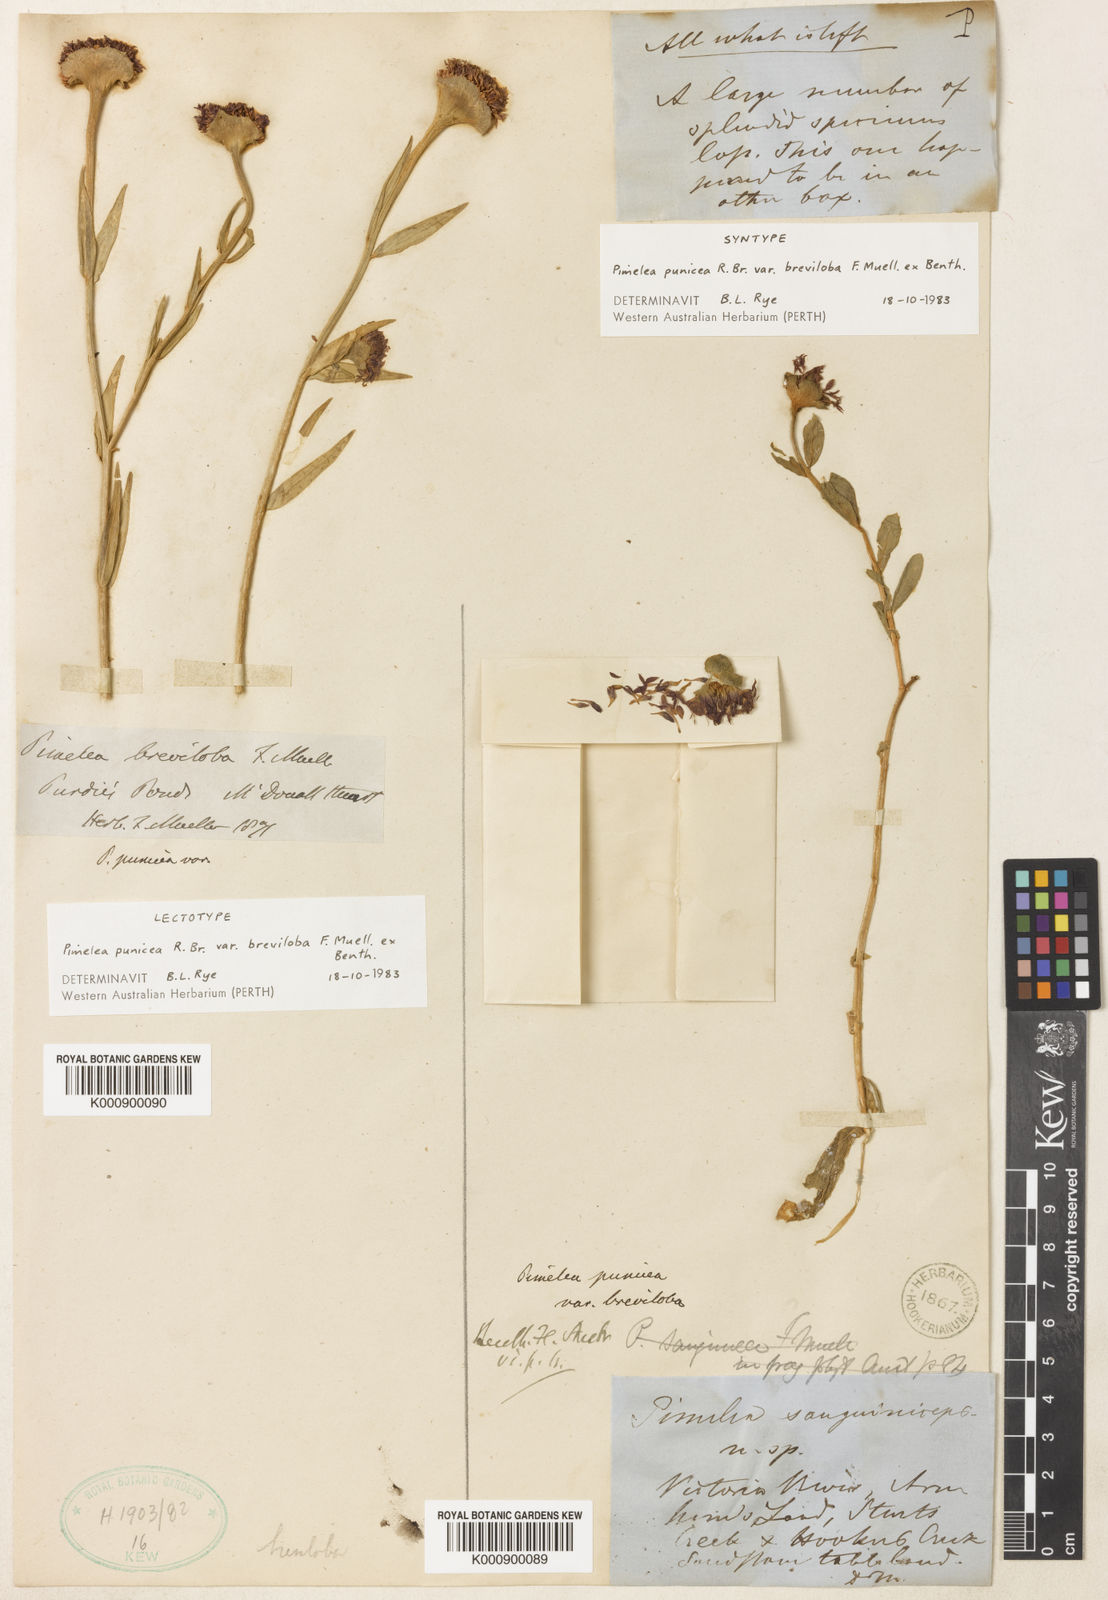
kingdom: Plantae
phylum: Tracheophyta
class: Magnoliopsida
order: Malvales
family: Thymelaeaceae
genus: Pimelea
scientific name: Pimelea
